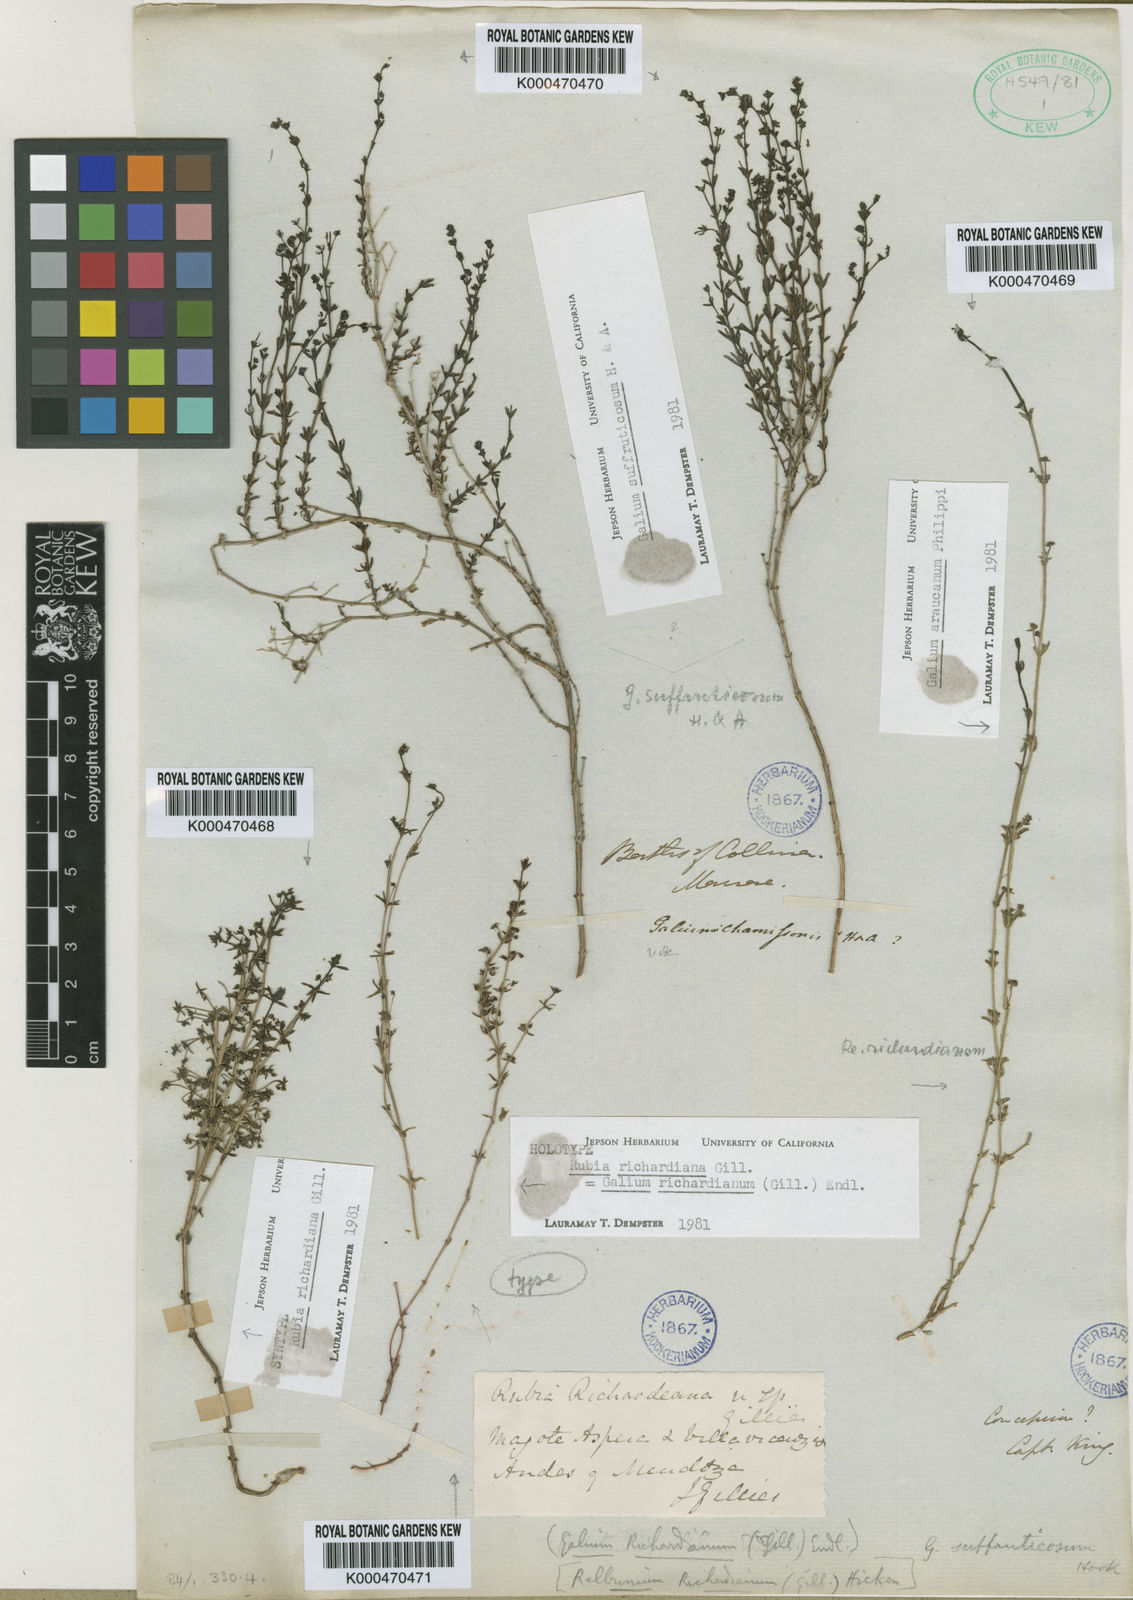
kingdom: Plantae
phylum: Tracheophyta
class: Magnoliopsida
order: Gentianales
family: Rubiaceae
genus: Galium
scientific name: Galium richardianum
